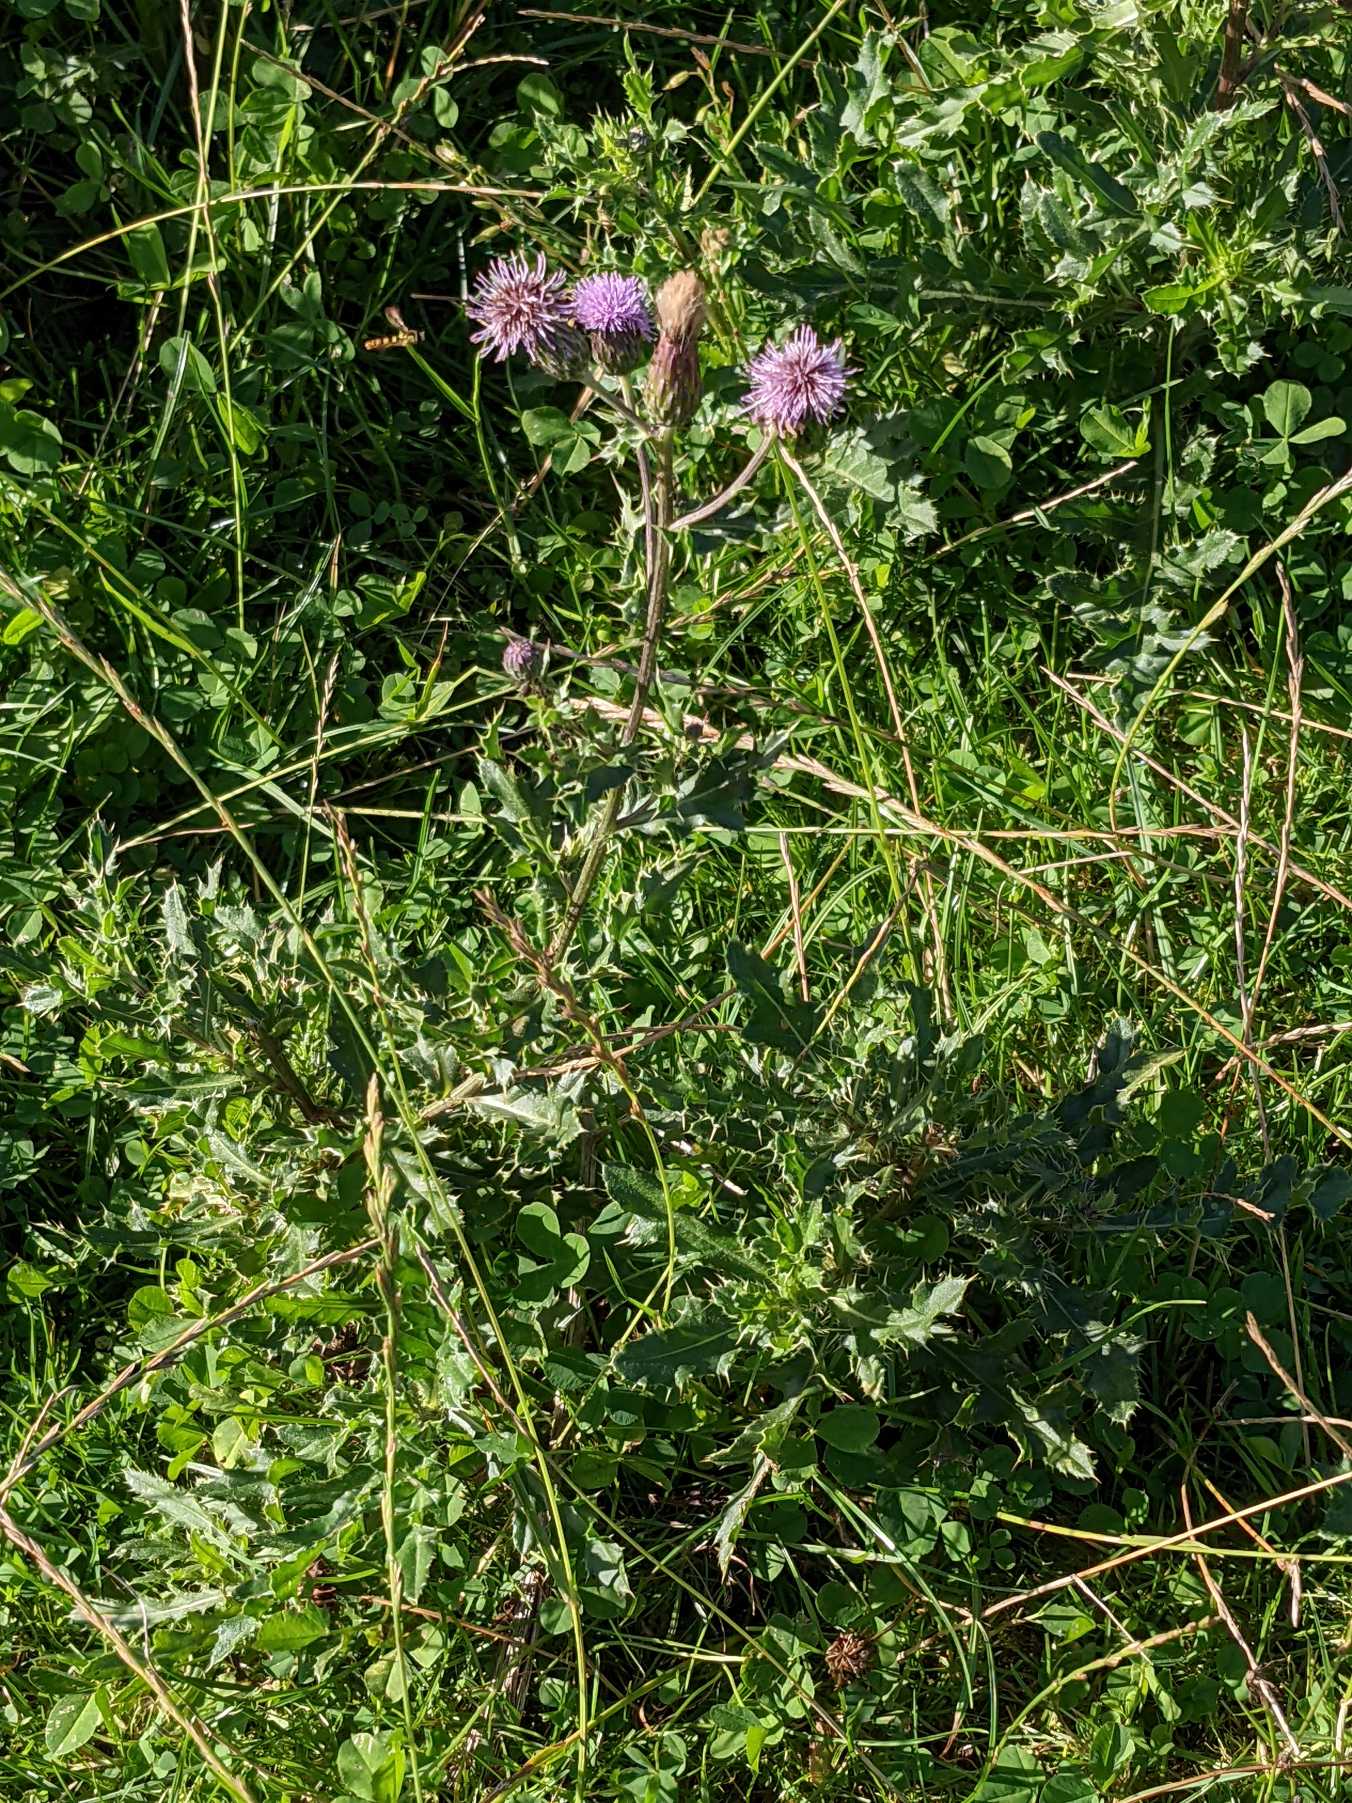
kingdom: Plantae
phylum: Tracheophyta
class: Magnoliopsida
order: Asterales
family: Asteraceae
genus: Cirsium
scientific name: Cirsium arvense
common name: Ager-tidsel
